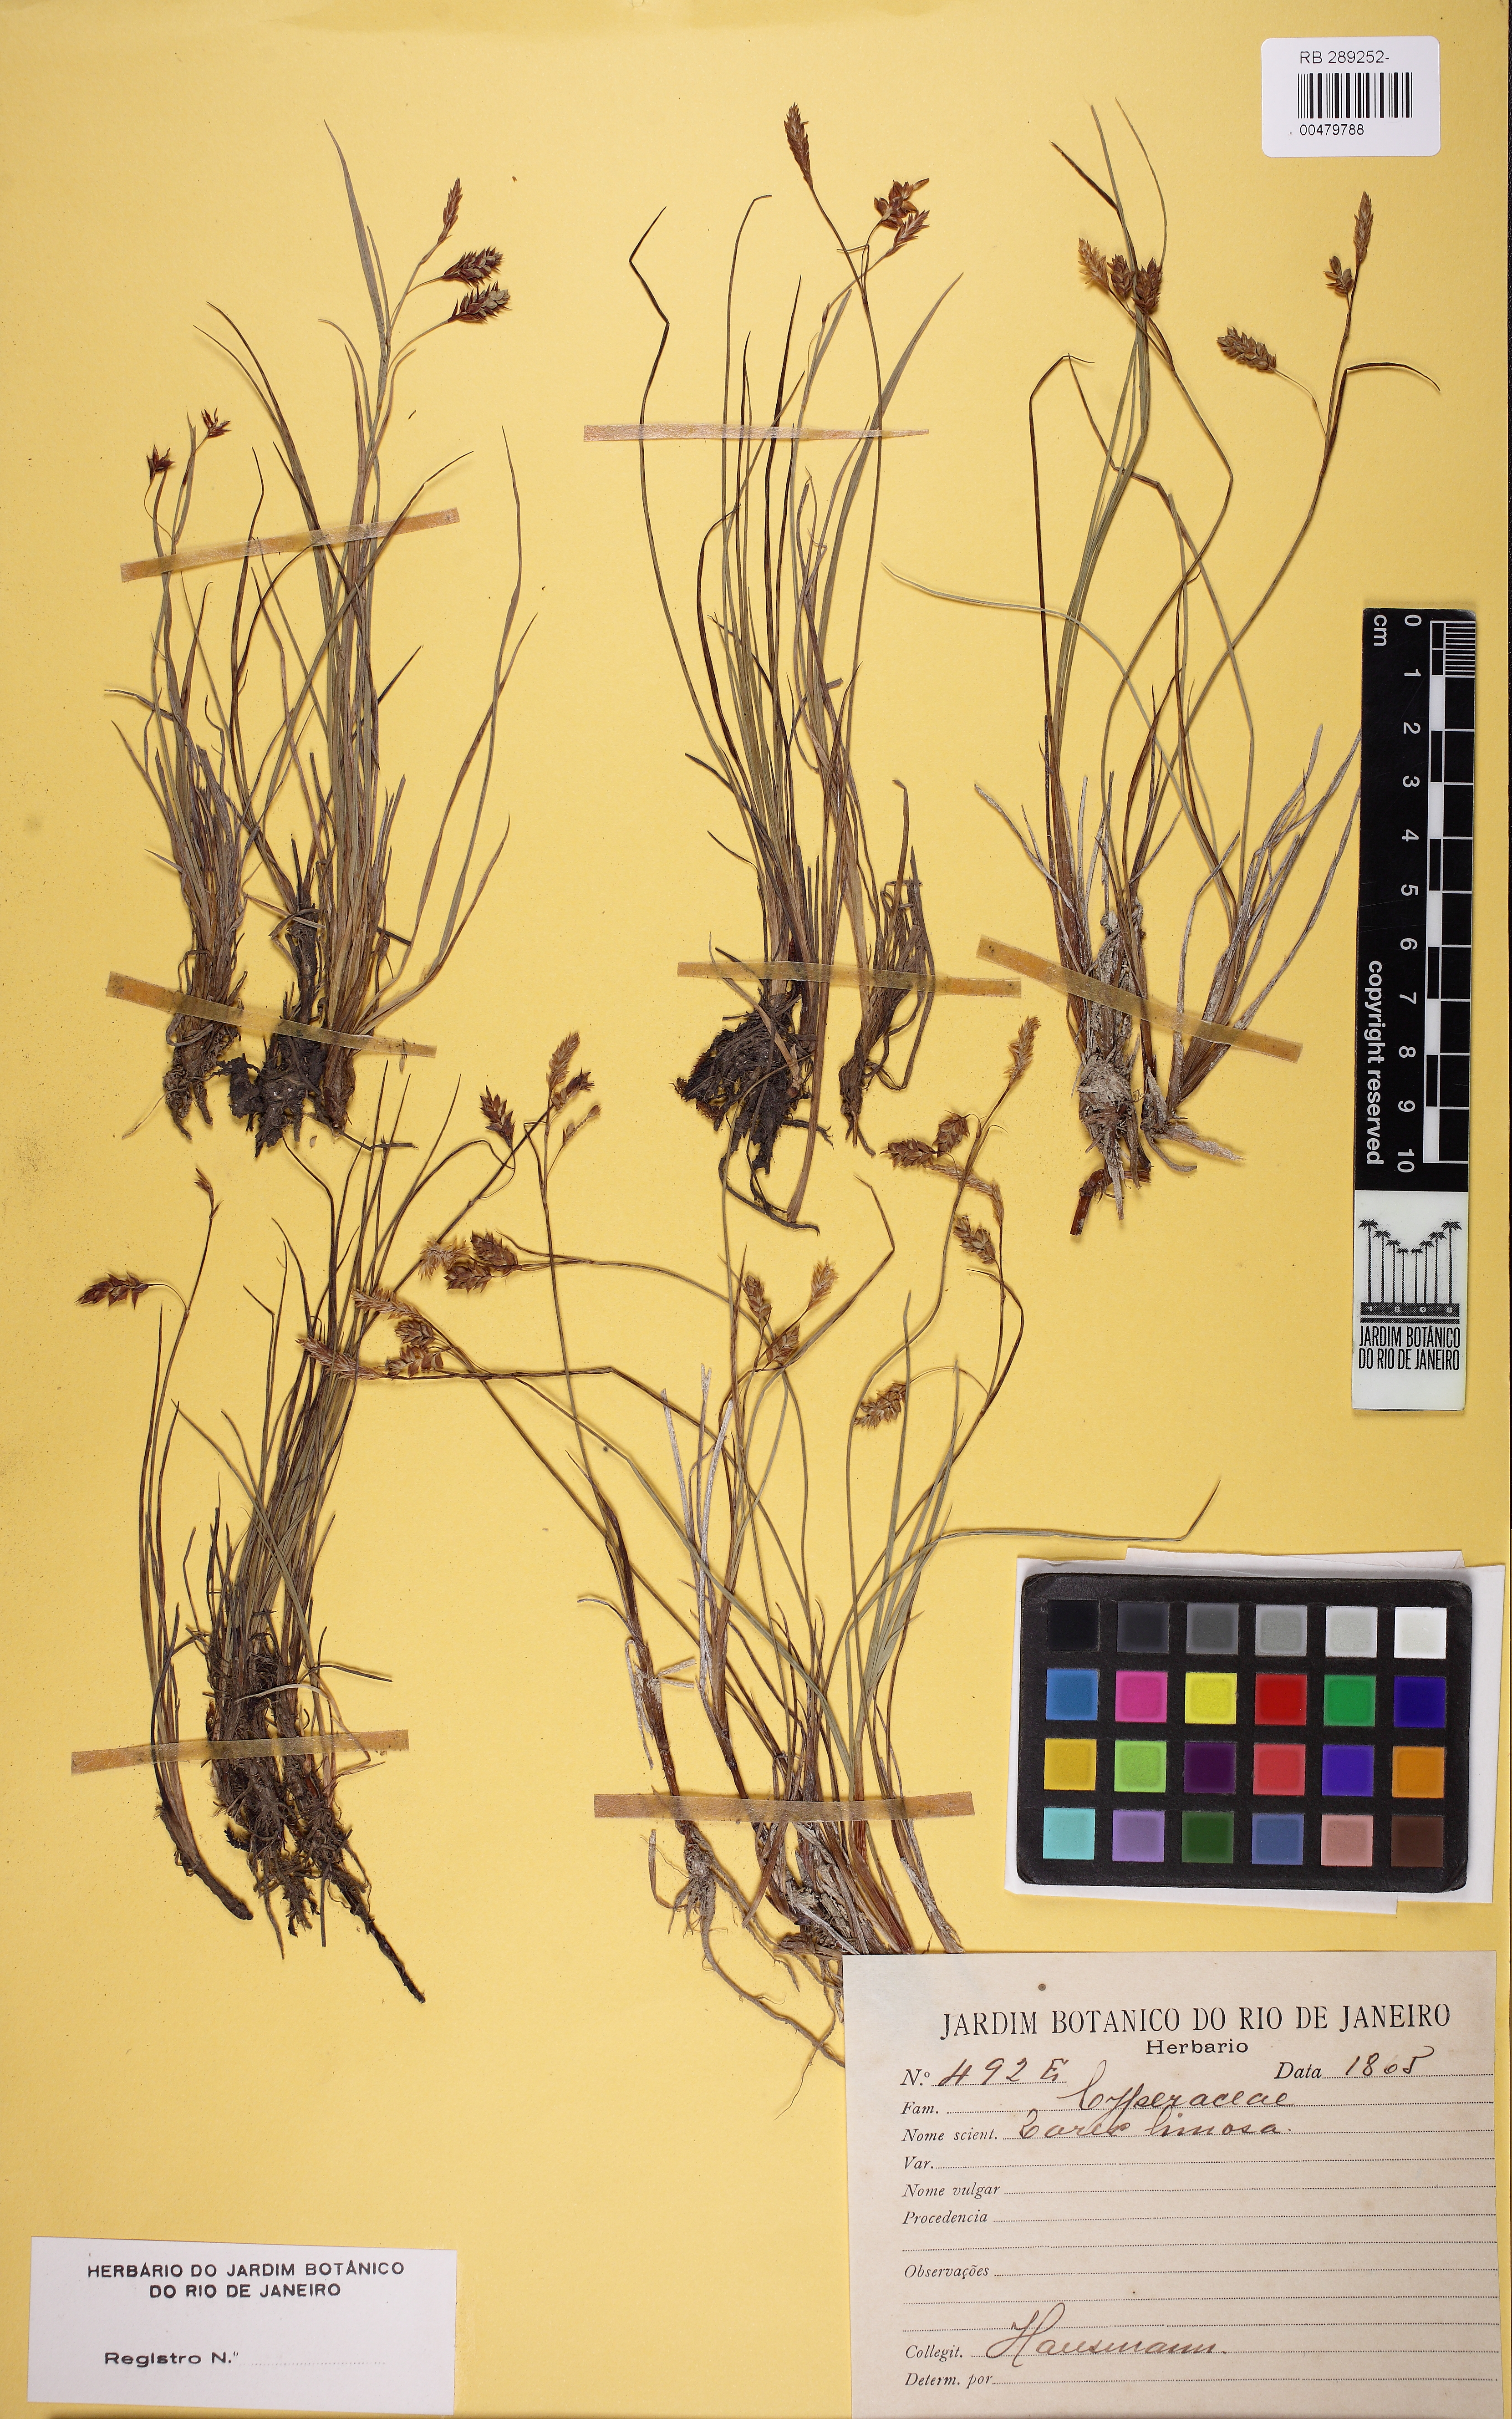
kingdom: Plantae
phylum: Tracheophyta
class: Liliopsida
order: Poales
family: Cyperaceae
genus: Carex
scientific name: Carex limosa
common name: Bog sedge
